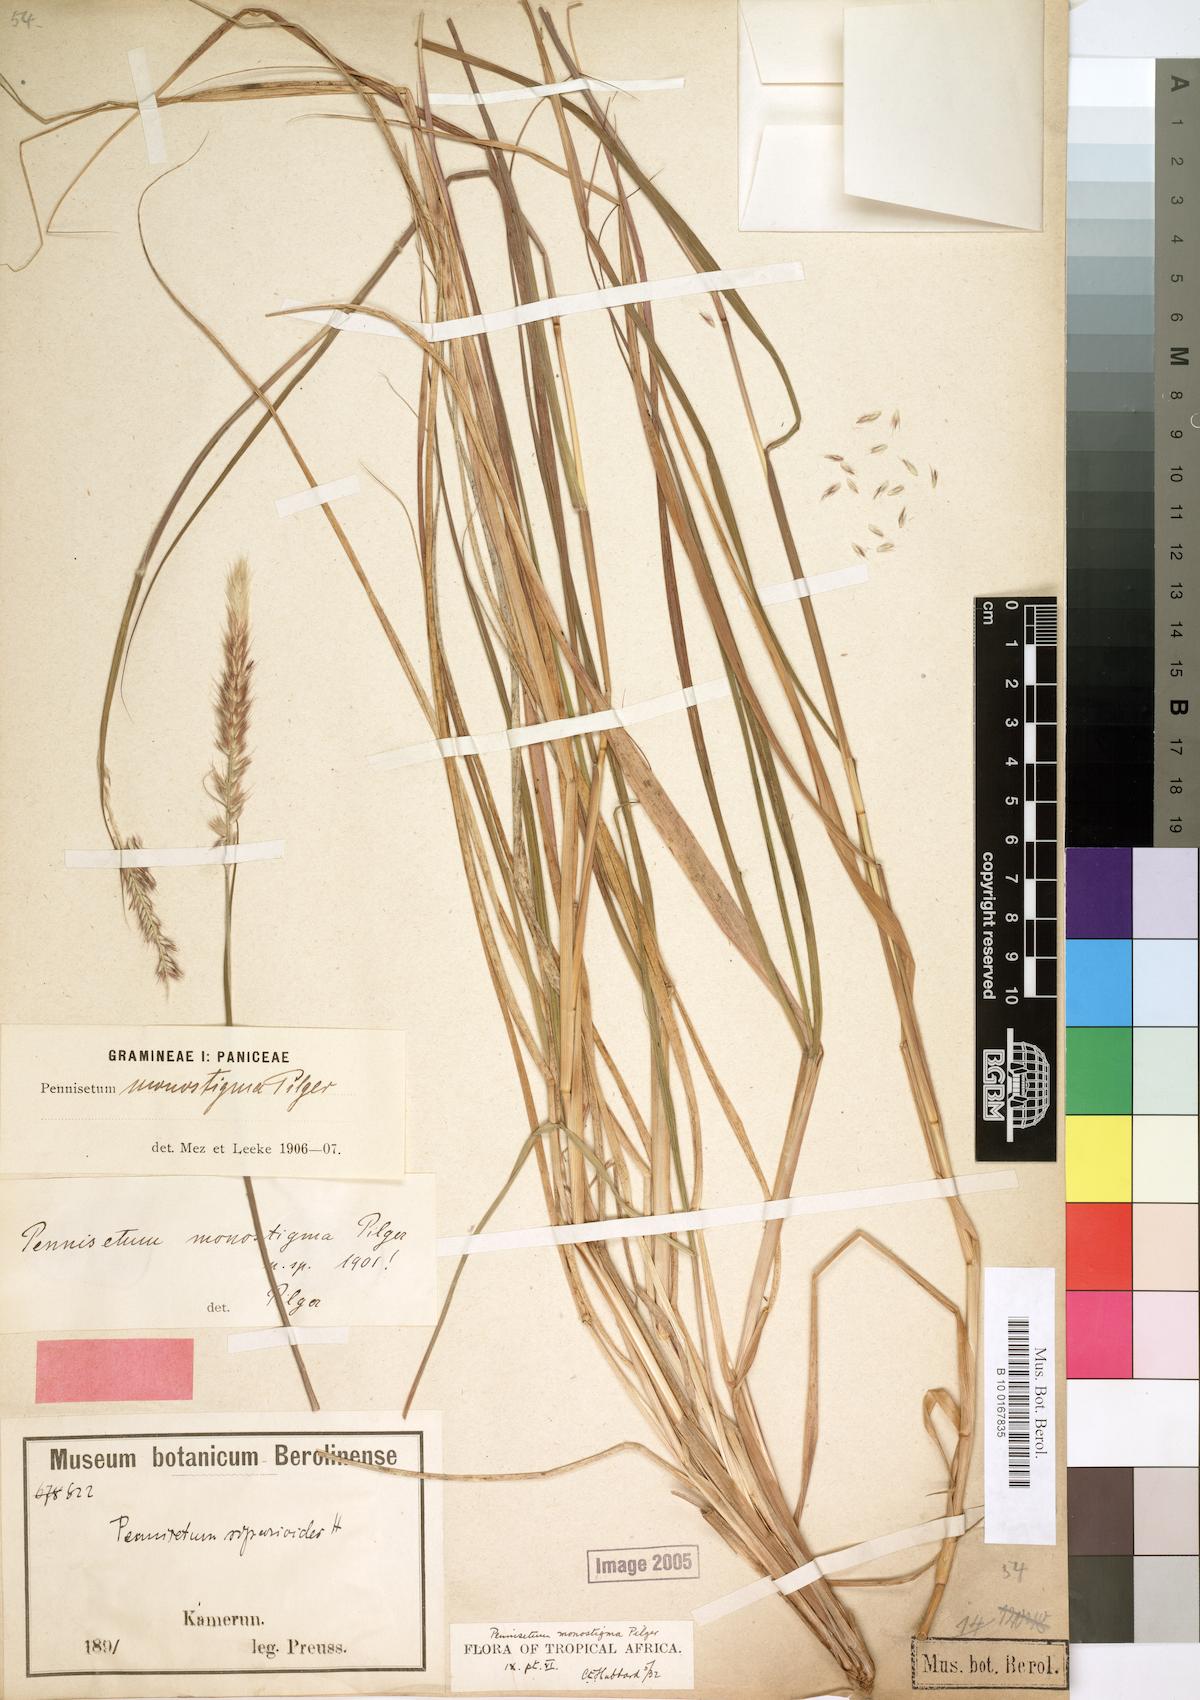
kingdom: Plantae
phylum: Tracheophyta
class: Liliopsida
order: Poales
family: Poaceae
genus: Cenchrus
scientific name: Cenchrus monostigma
